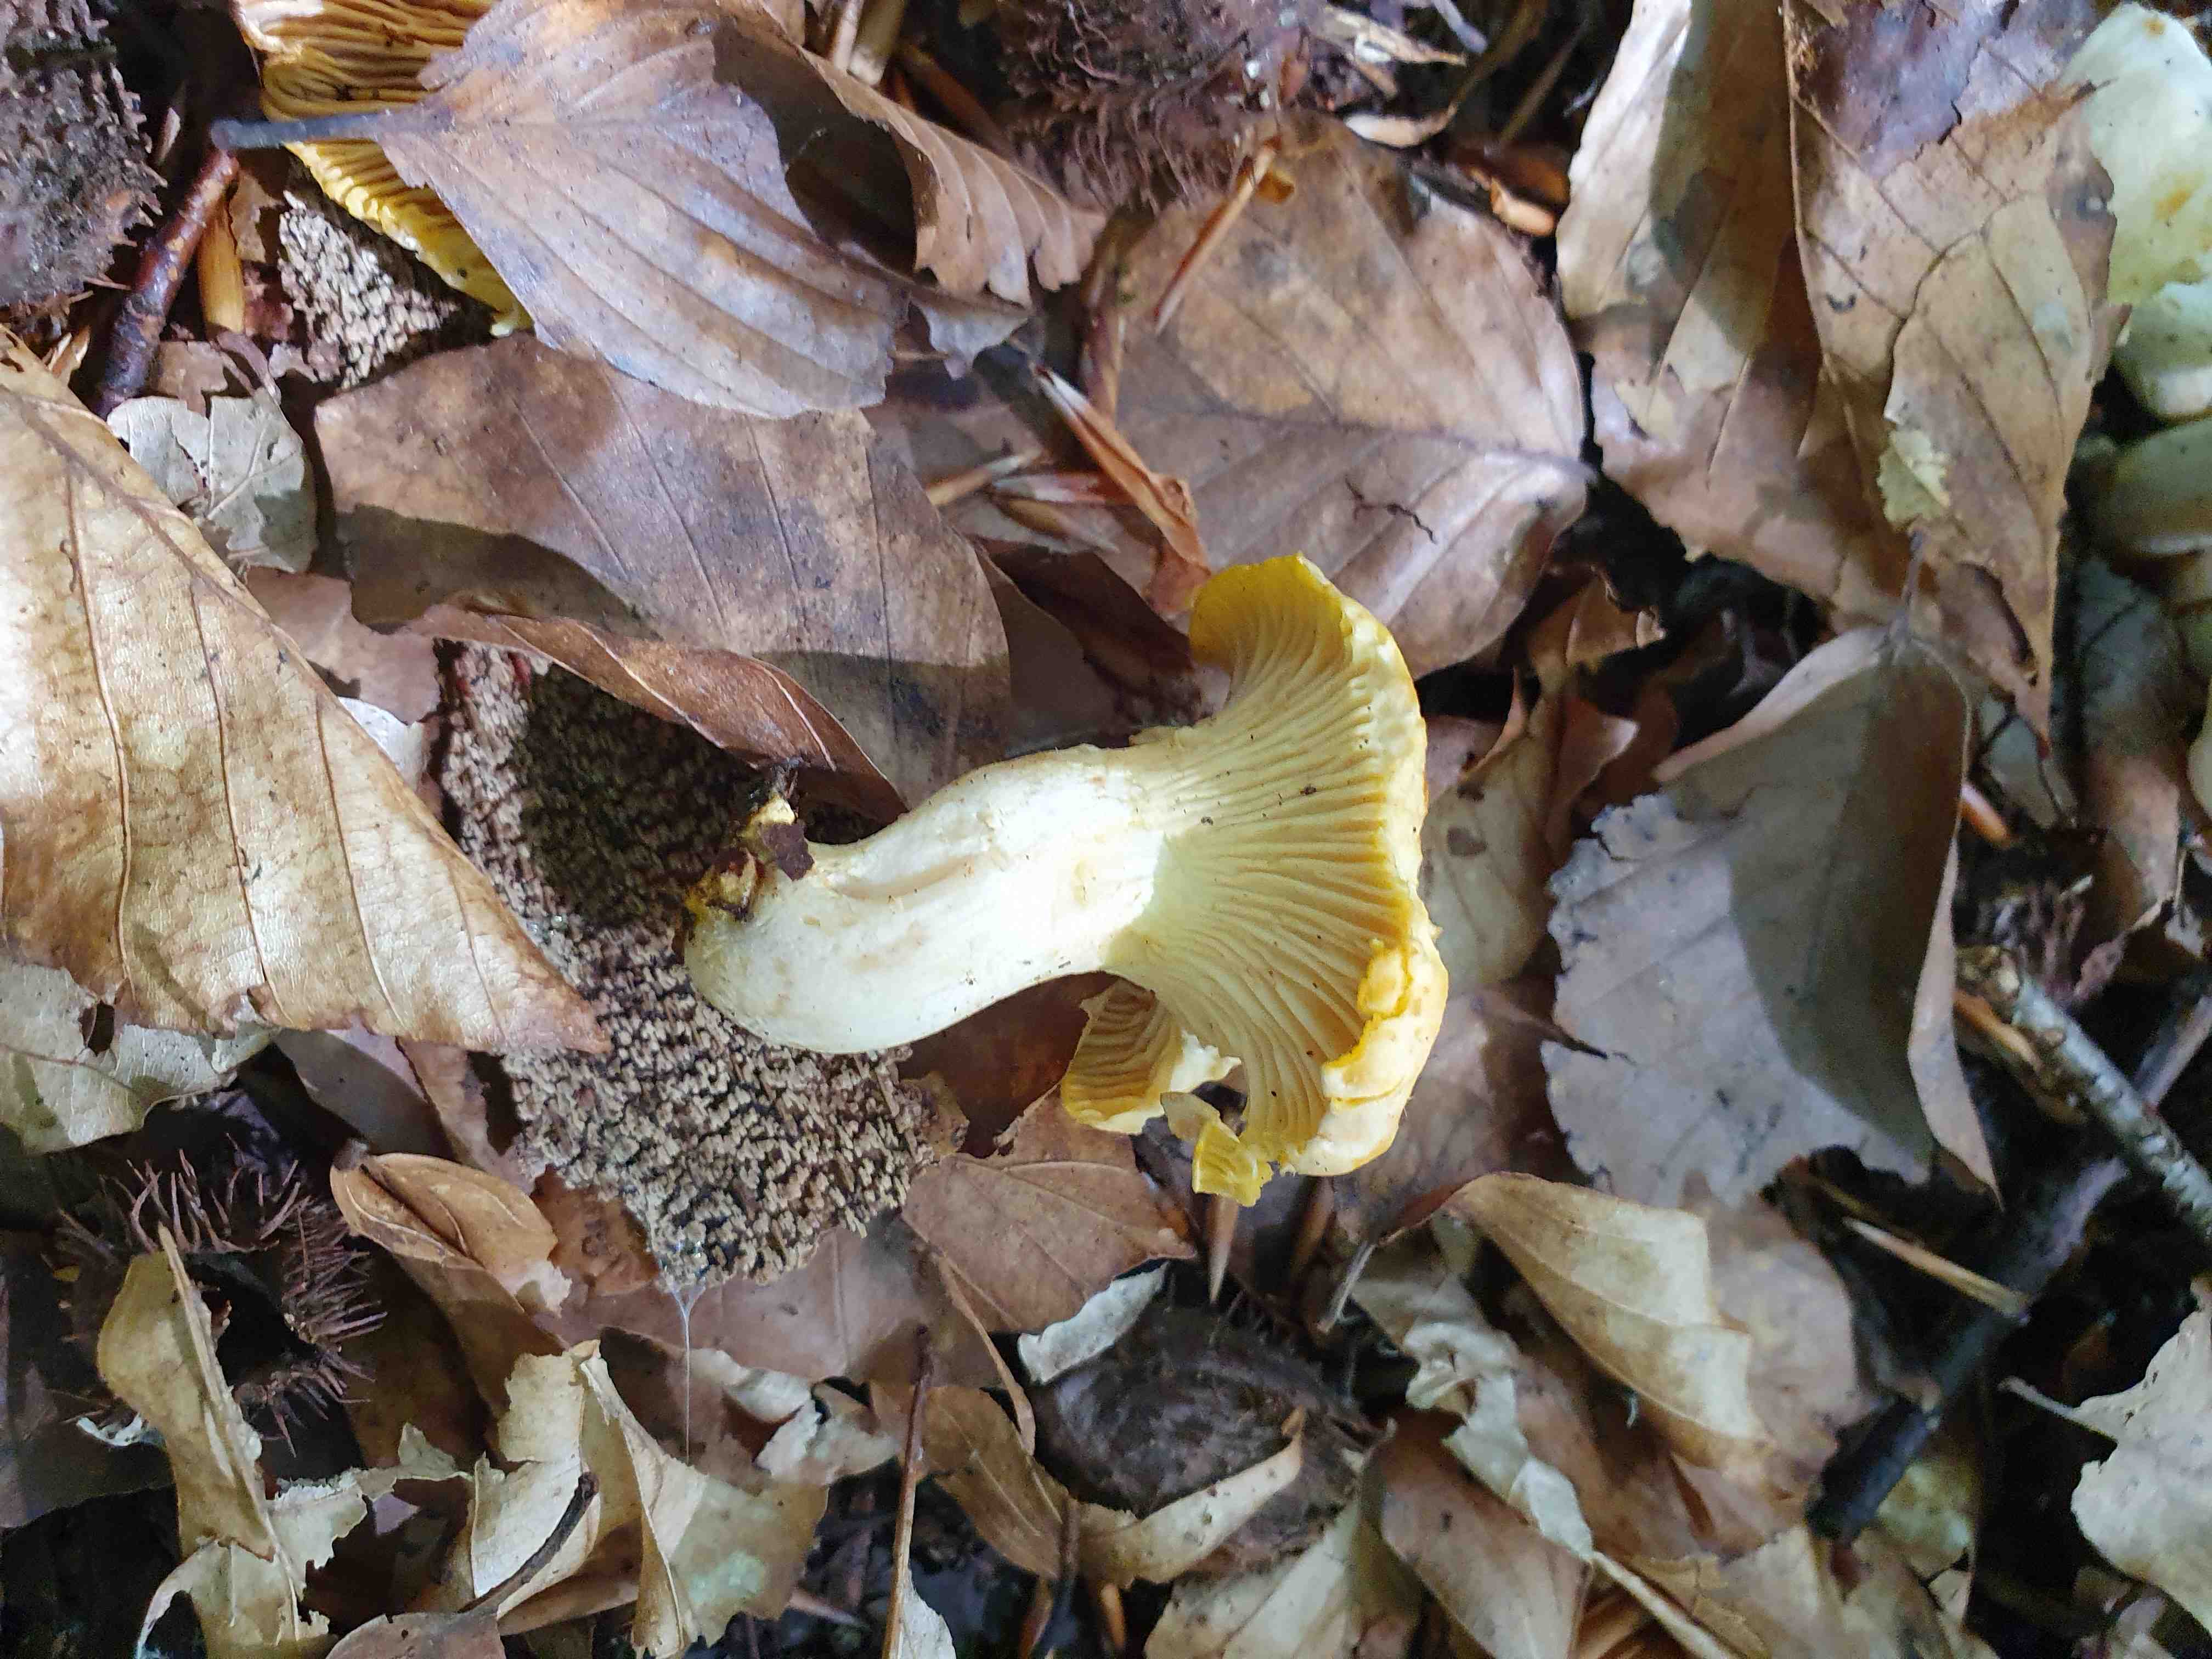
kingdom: Fungi
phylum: Basidiomycota
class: Agaricomycetes
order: Cantharellales
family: Hydnaceae
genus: Cantharellus
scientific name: Cantharellus pallens
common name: bleg kantarel
